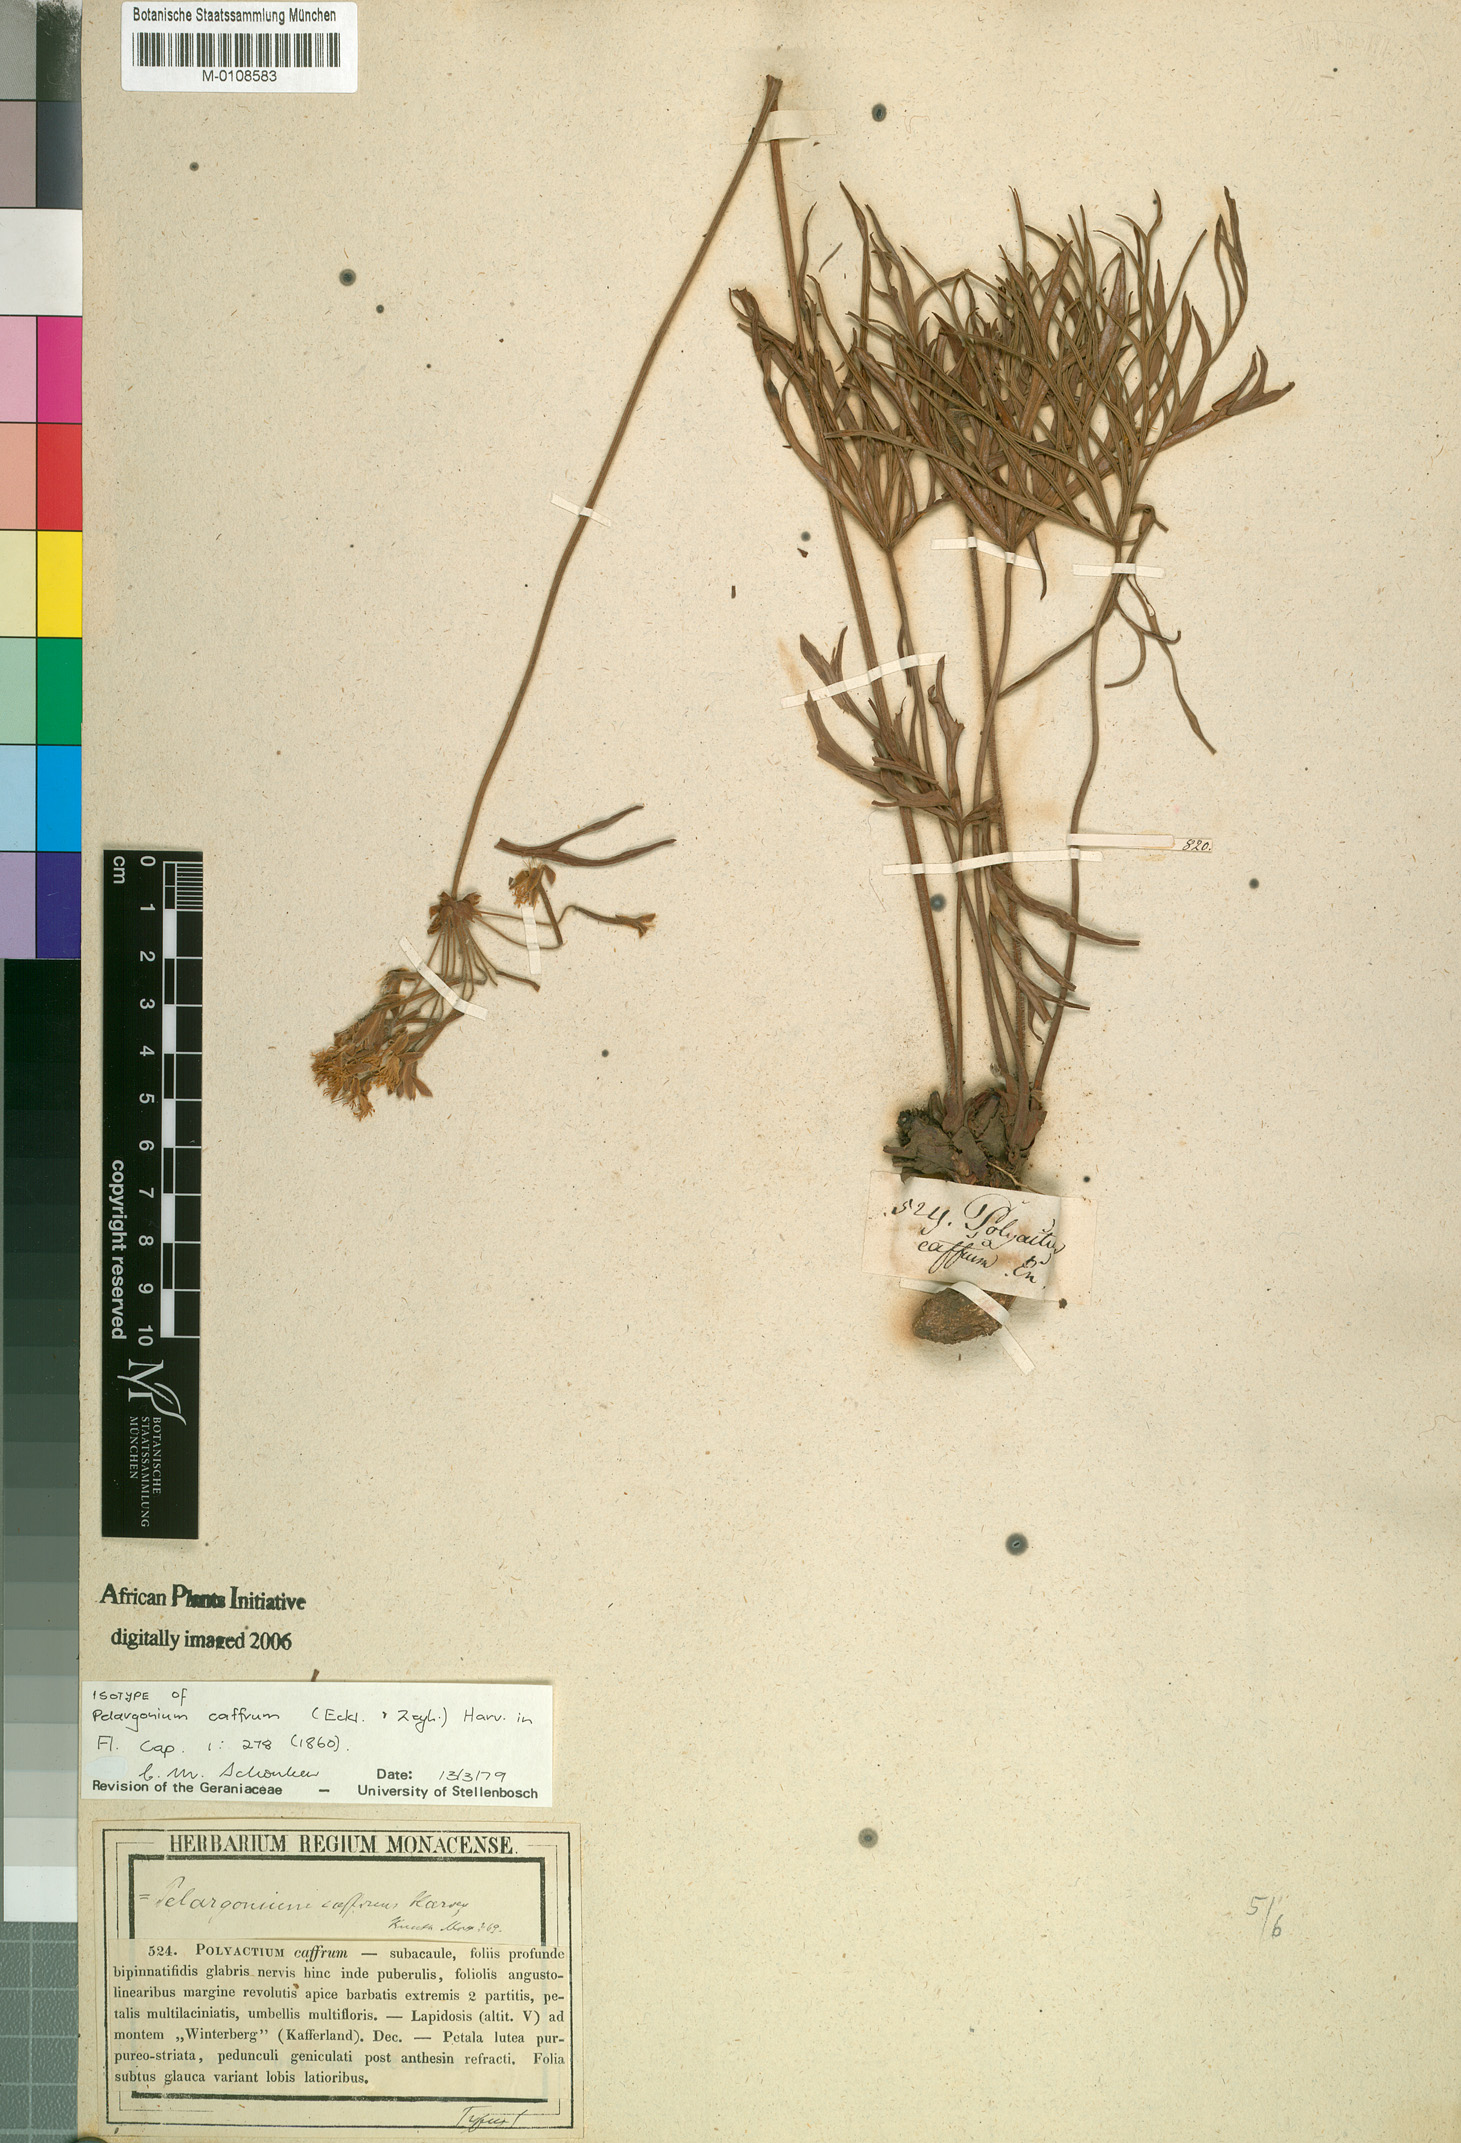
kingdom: Plantae
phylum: Tracheophyta
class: Magnoliopsida
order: Geraniales
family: Geraniaceae
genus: Pelargonium
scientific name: Pelargonium caffrum
